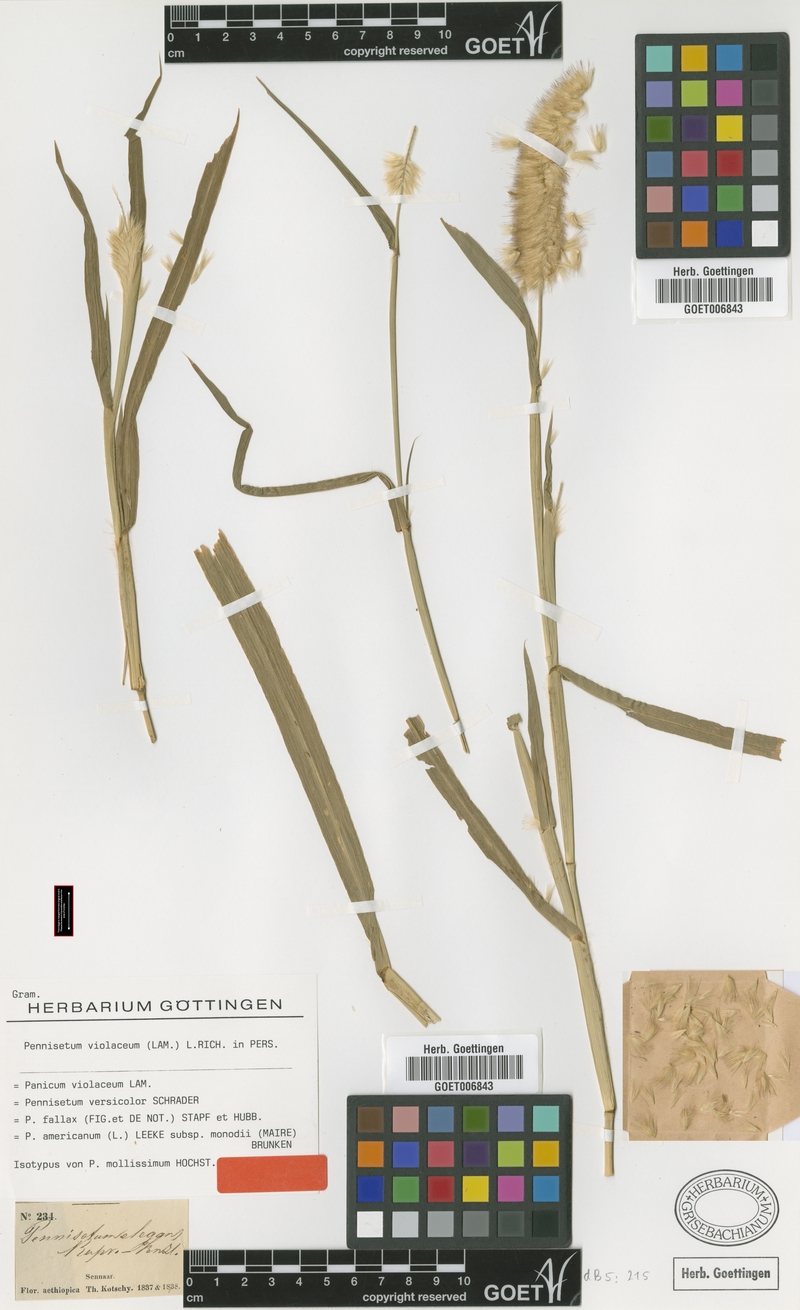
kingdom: Plantae
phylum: Tracheophyta
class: Liliopsida
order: Poales
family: Poaceae
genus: Cenchrus
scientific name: Cenchrus violaceus
